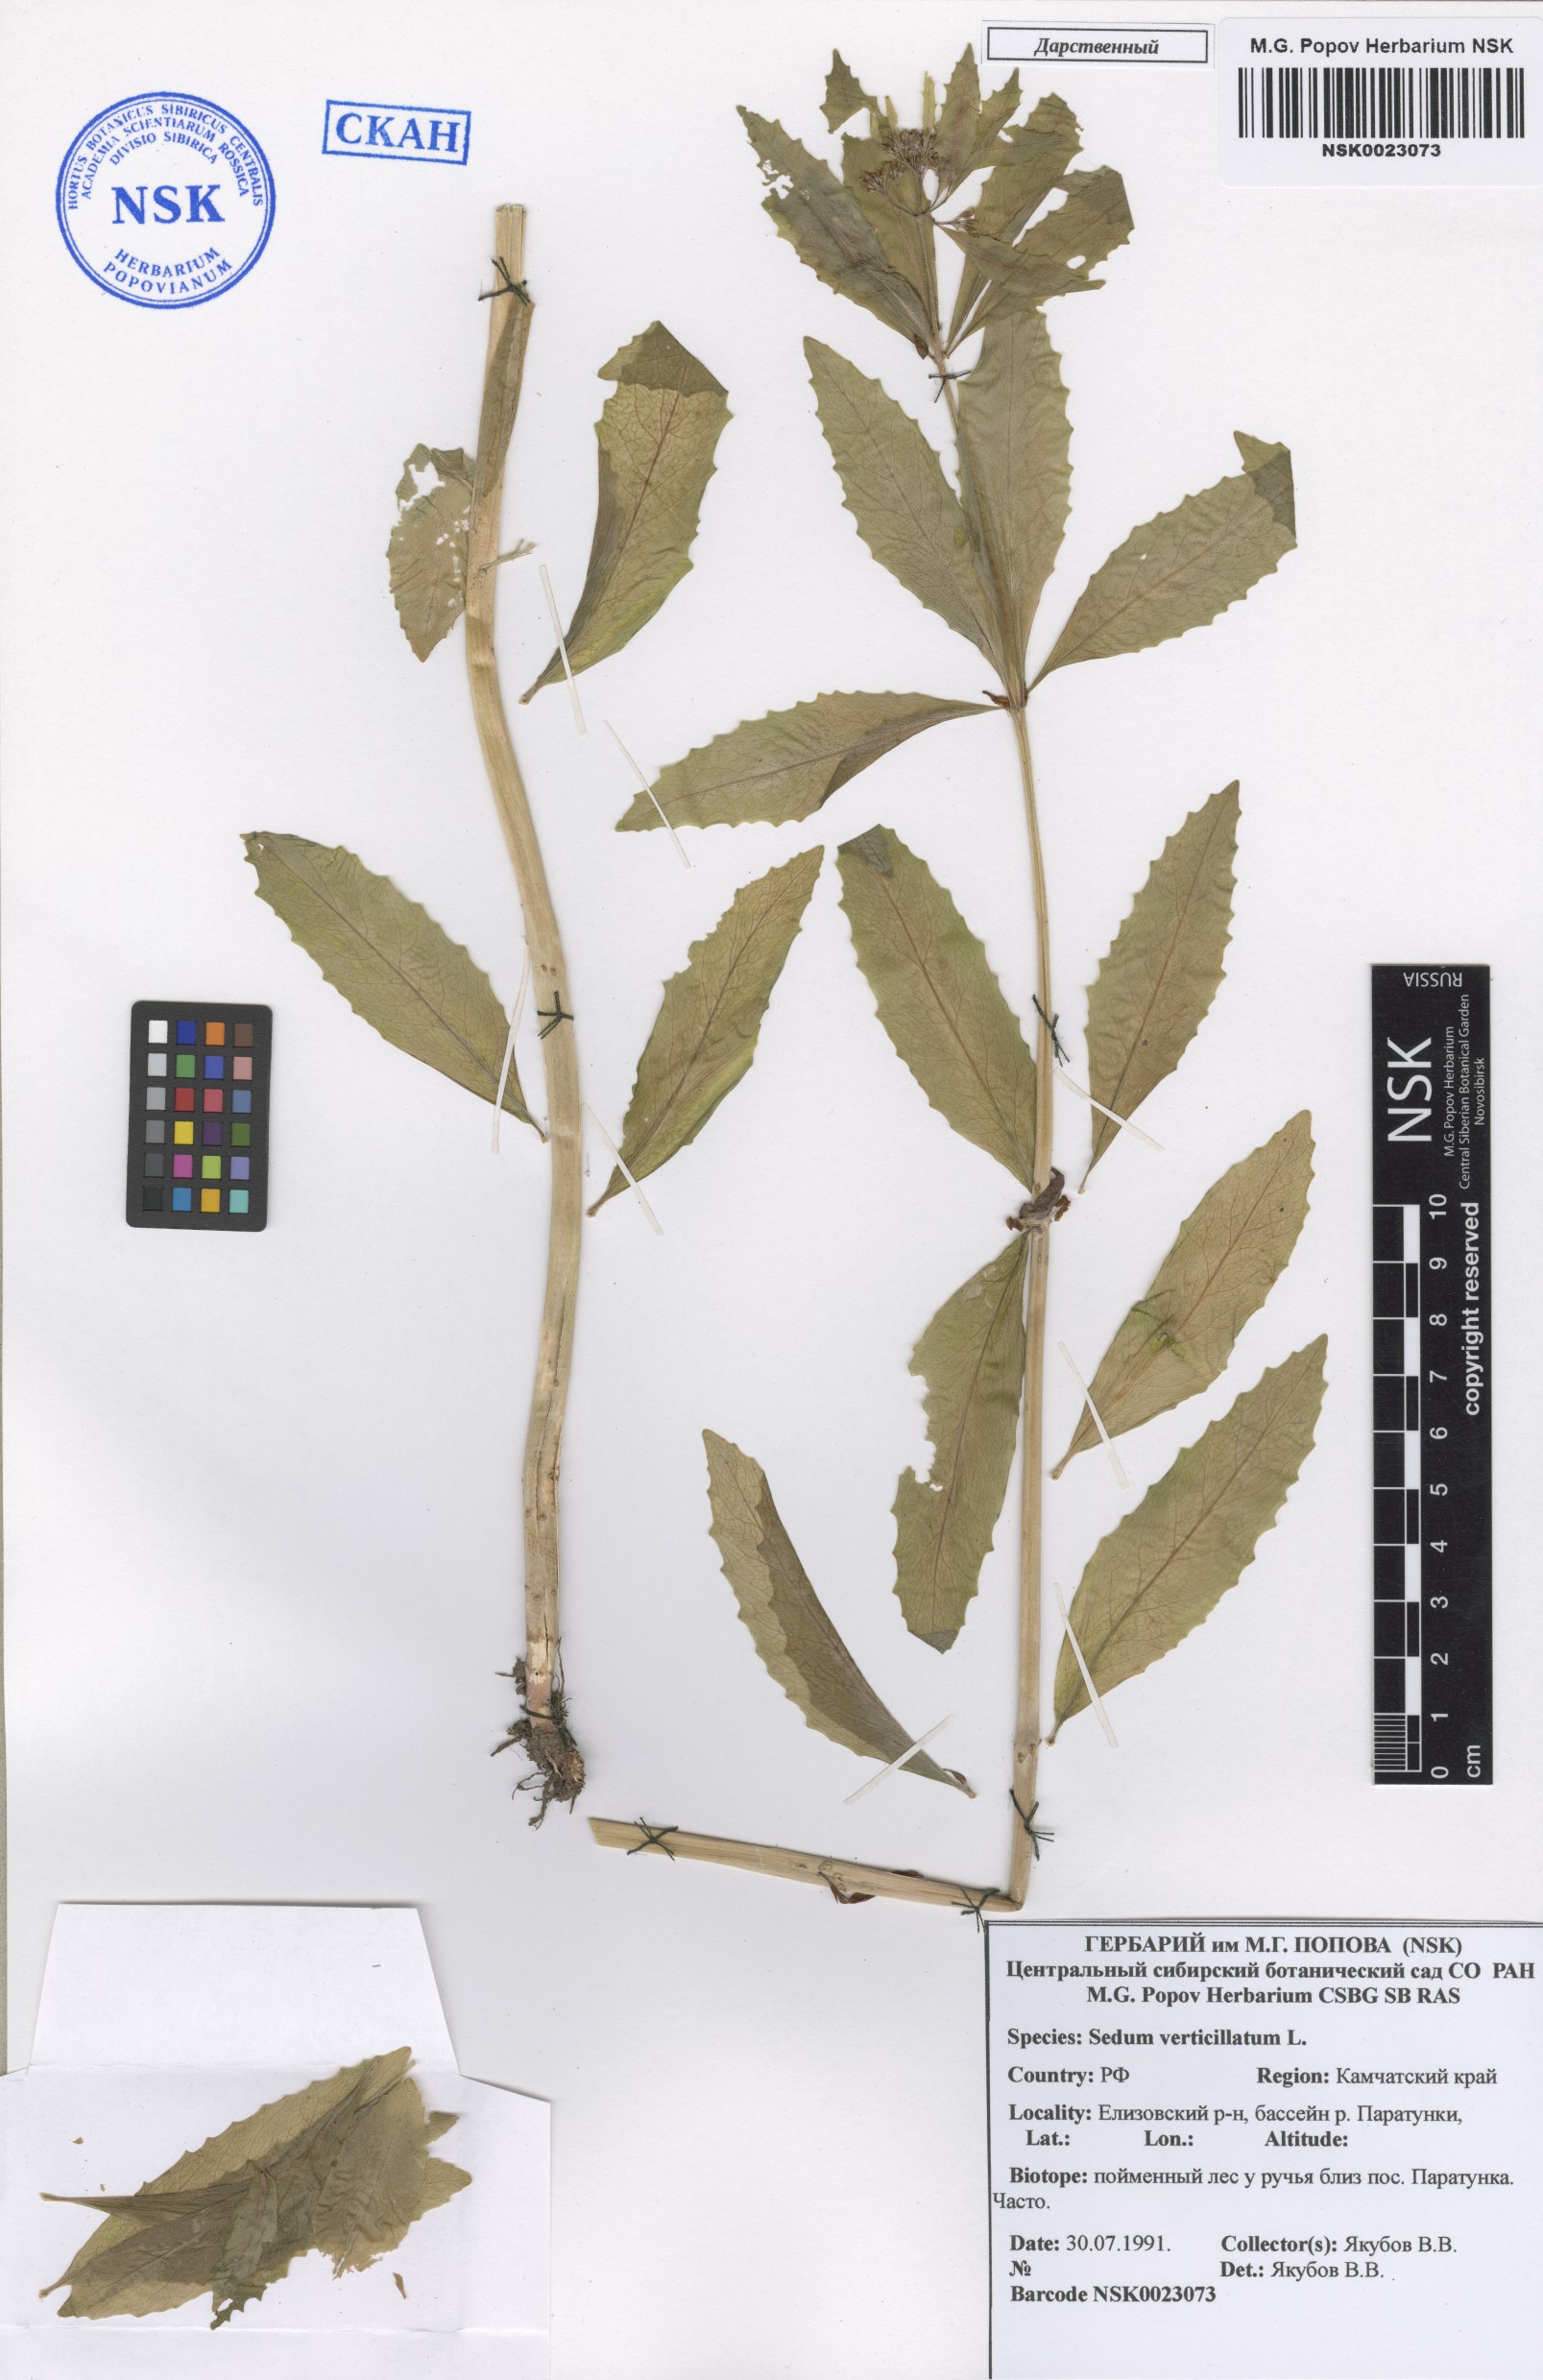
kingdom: Plantae
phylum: Tracheophyta
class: Magnoliopsida
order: Saxifragales
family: Crassulaceae
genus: Hylotelephium
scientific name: Hylotelephium verticillatum
